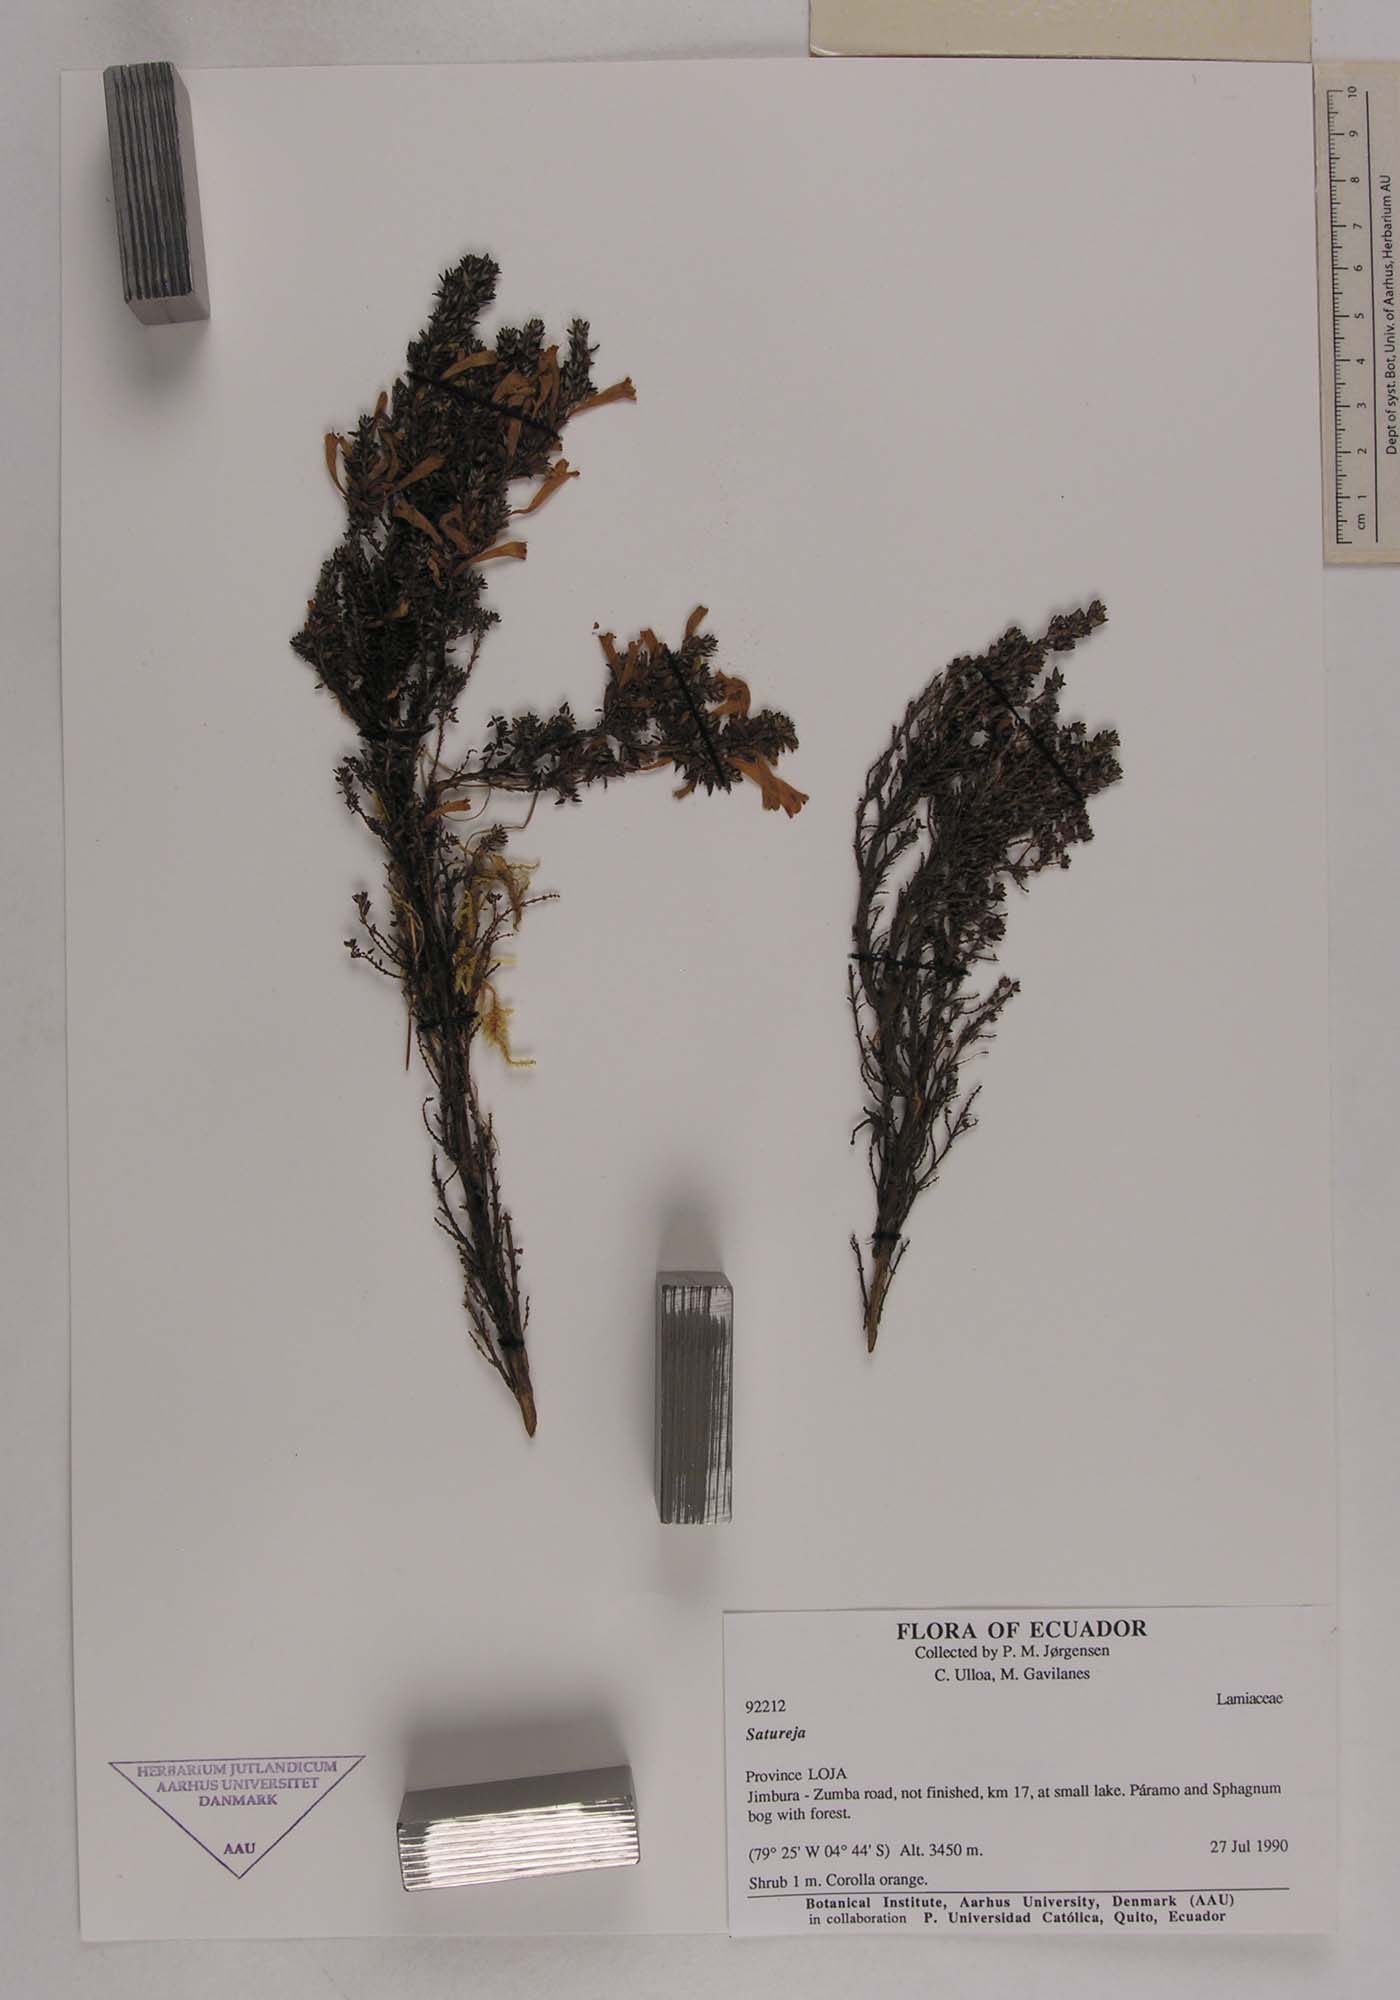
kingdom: Plantae
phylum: Tracheophyta
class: Magnoliopsida
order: Lamiales
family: Lamiaceae
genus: Clinopodium
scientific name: Clinopodium revolutum
